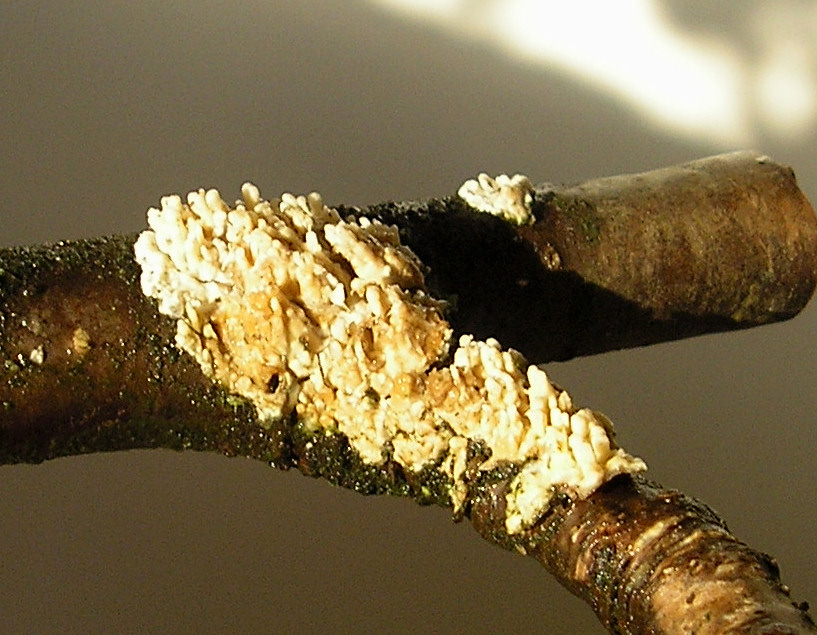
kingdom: Fungi
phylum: Basidiomycota
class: Agaricomycetes
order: Hymenochaetales
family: Schizoporaceae
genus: Xylodon
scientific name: Xylodon radula
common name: grovtandet kalkskind
